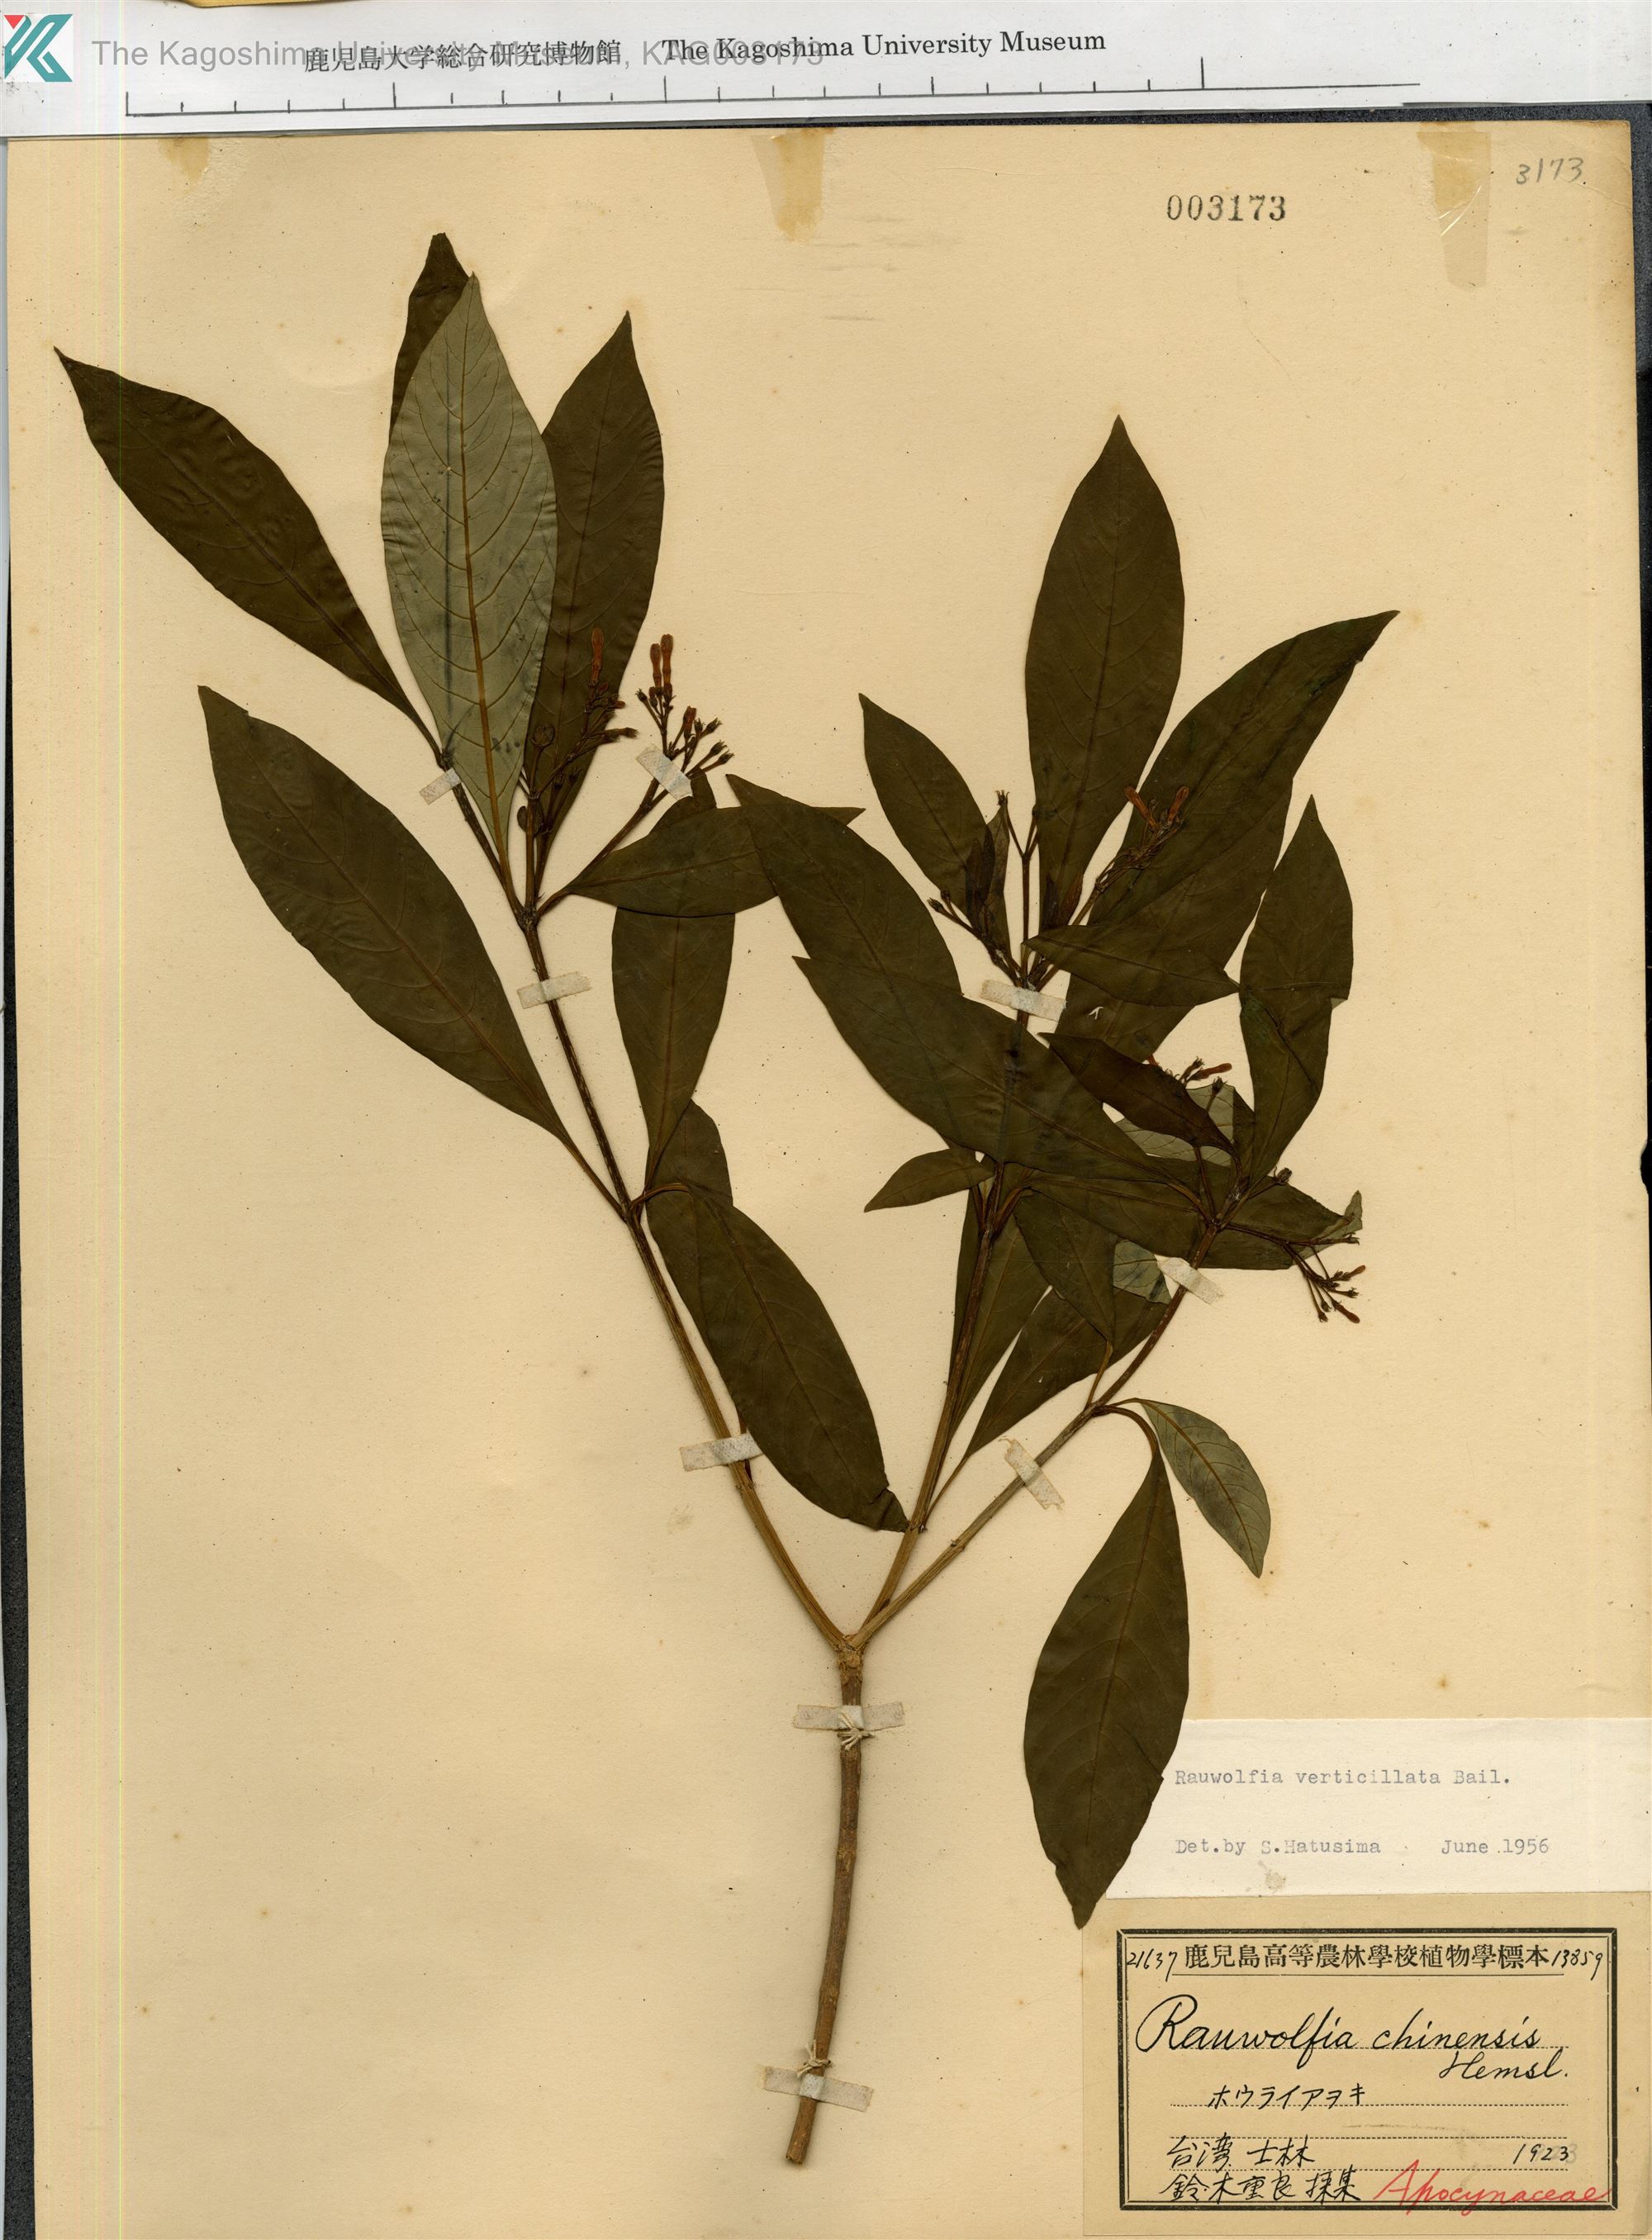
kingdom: Plantae
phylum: Tracheophyta
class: Magnoliopsida
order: Gentianales
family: Apocynaceae
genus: Rauvolfia
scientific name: Rauvolfia verticillata
